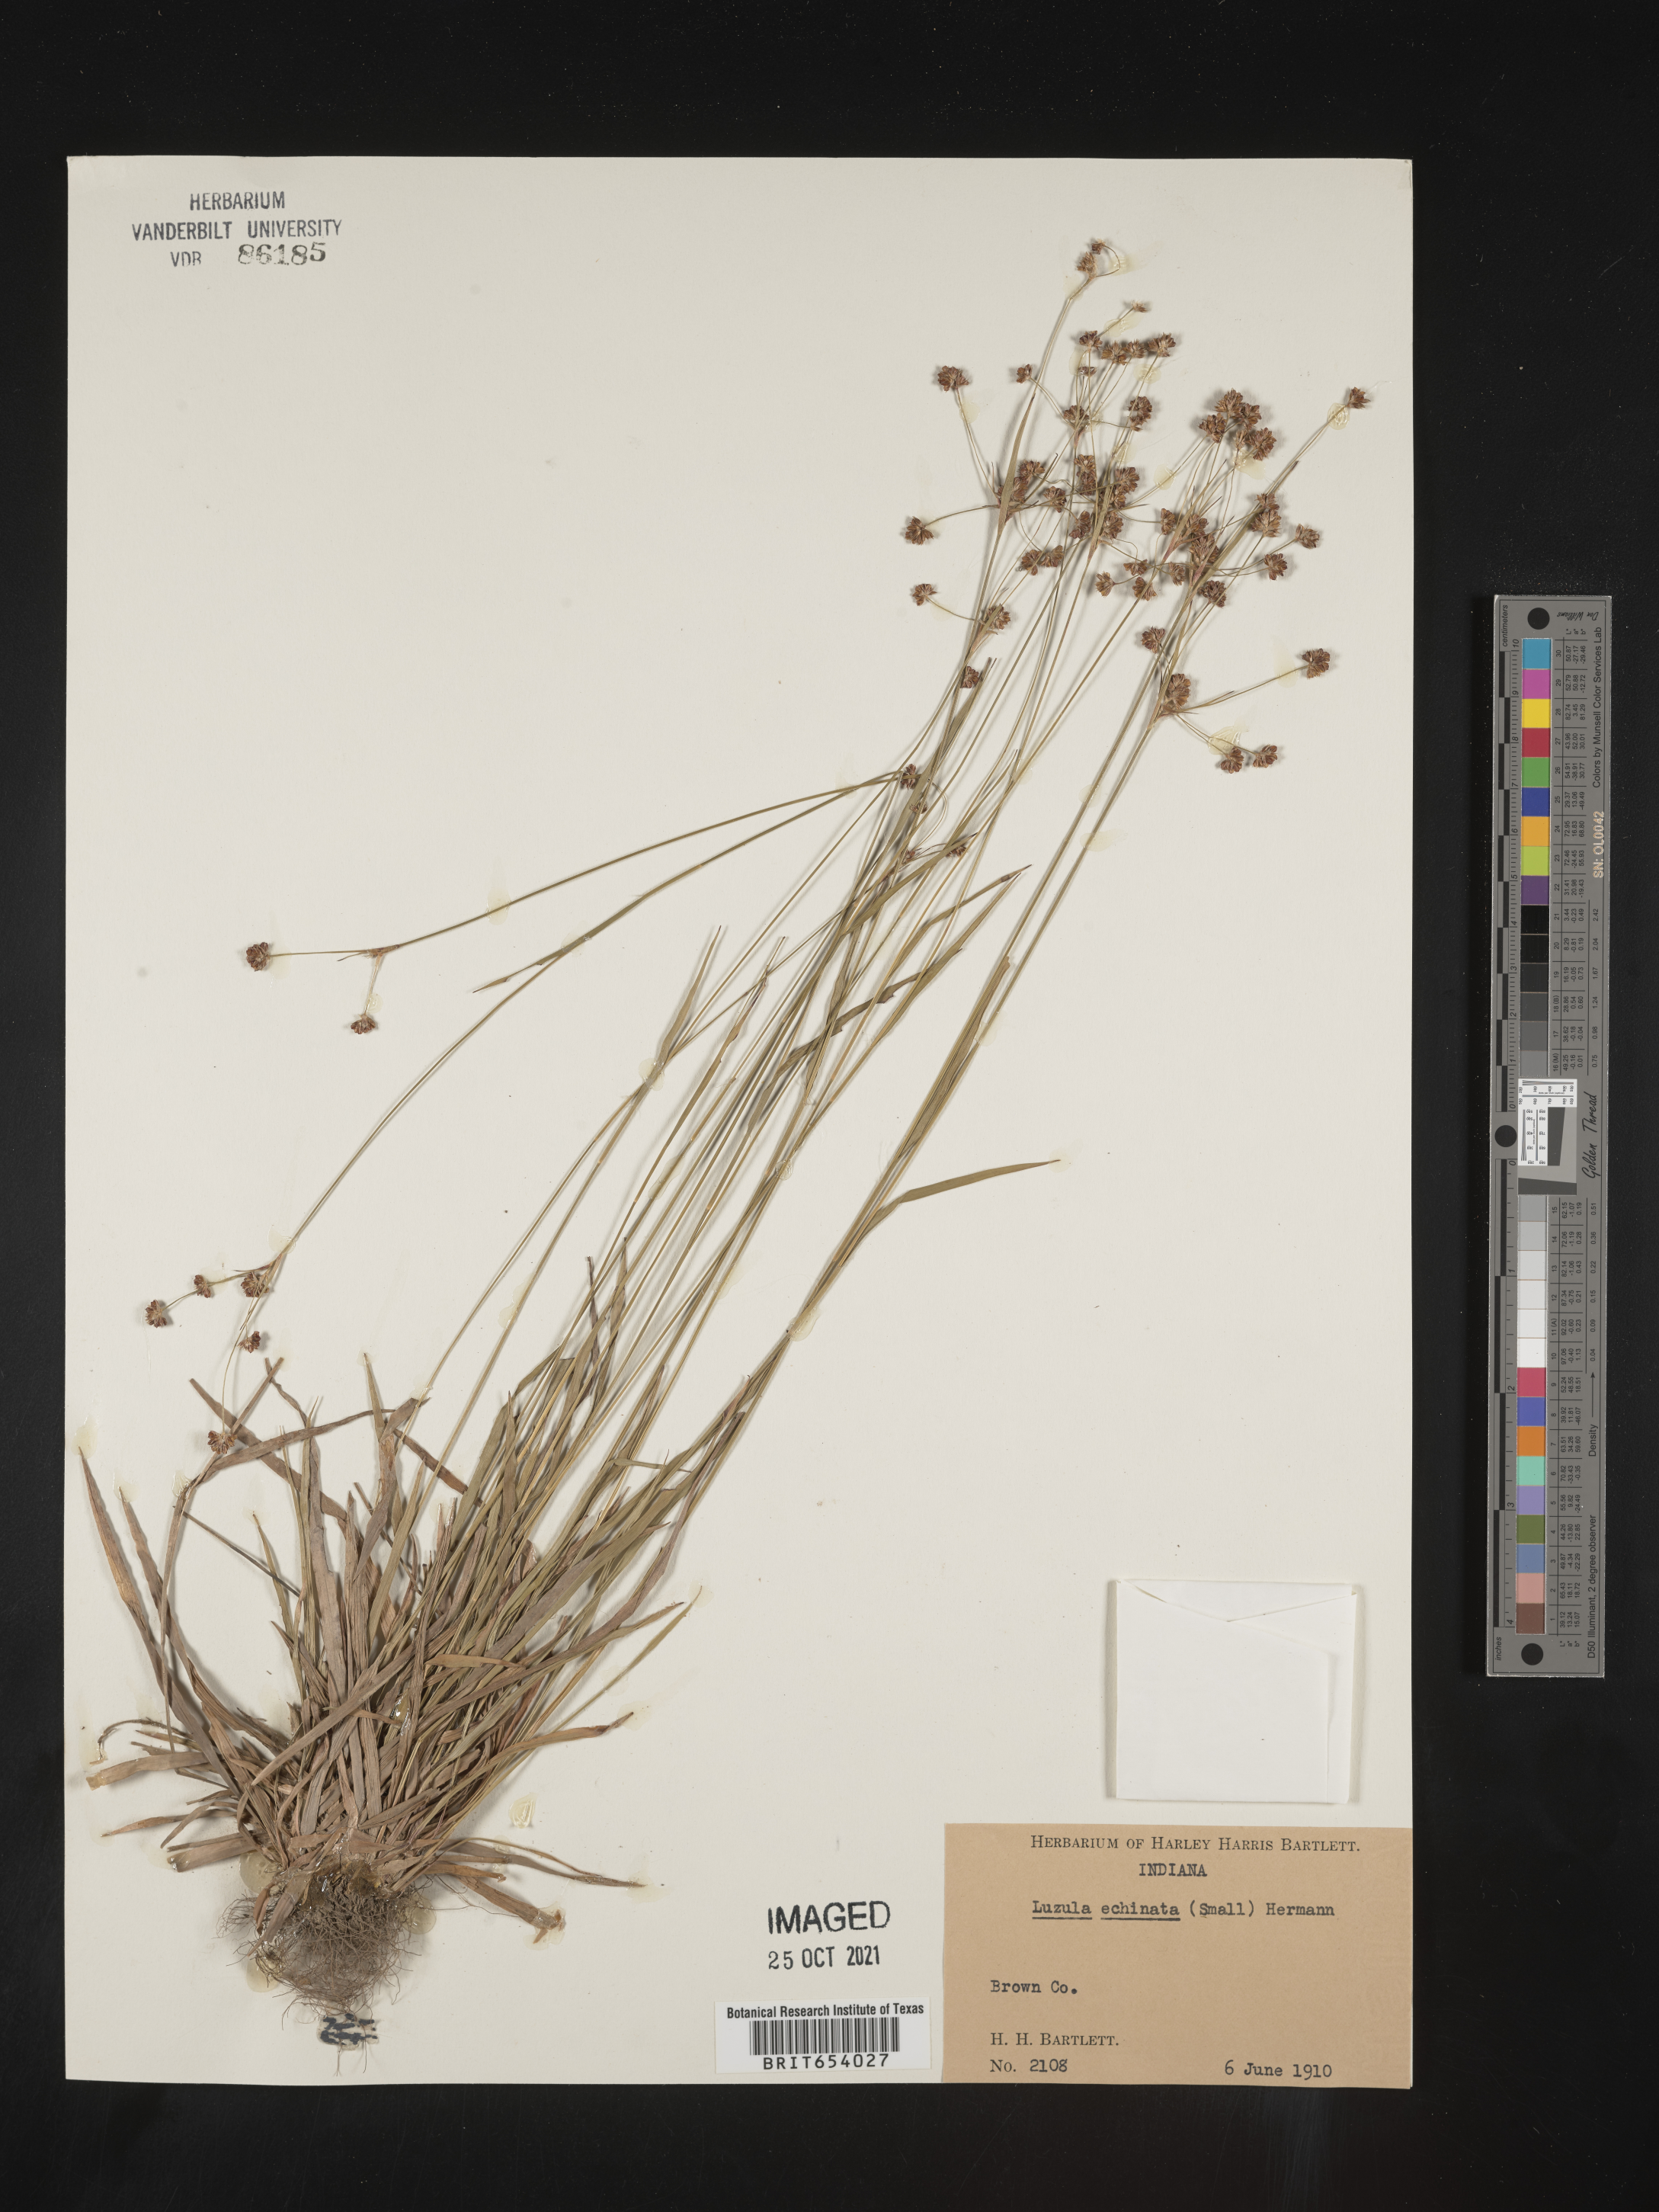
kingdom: Plantae
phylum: Tracheophyta
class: Liliopsida
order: Poales
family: Juncaceae
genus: Luzula
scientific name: Luzula echinata
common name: Hedgehog woodrush
